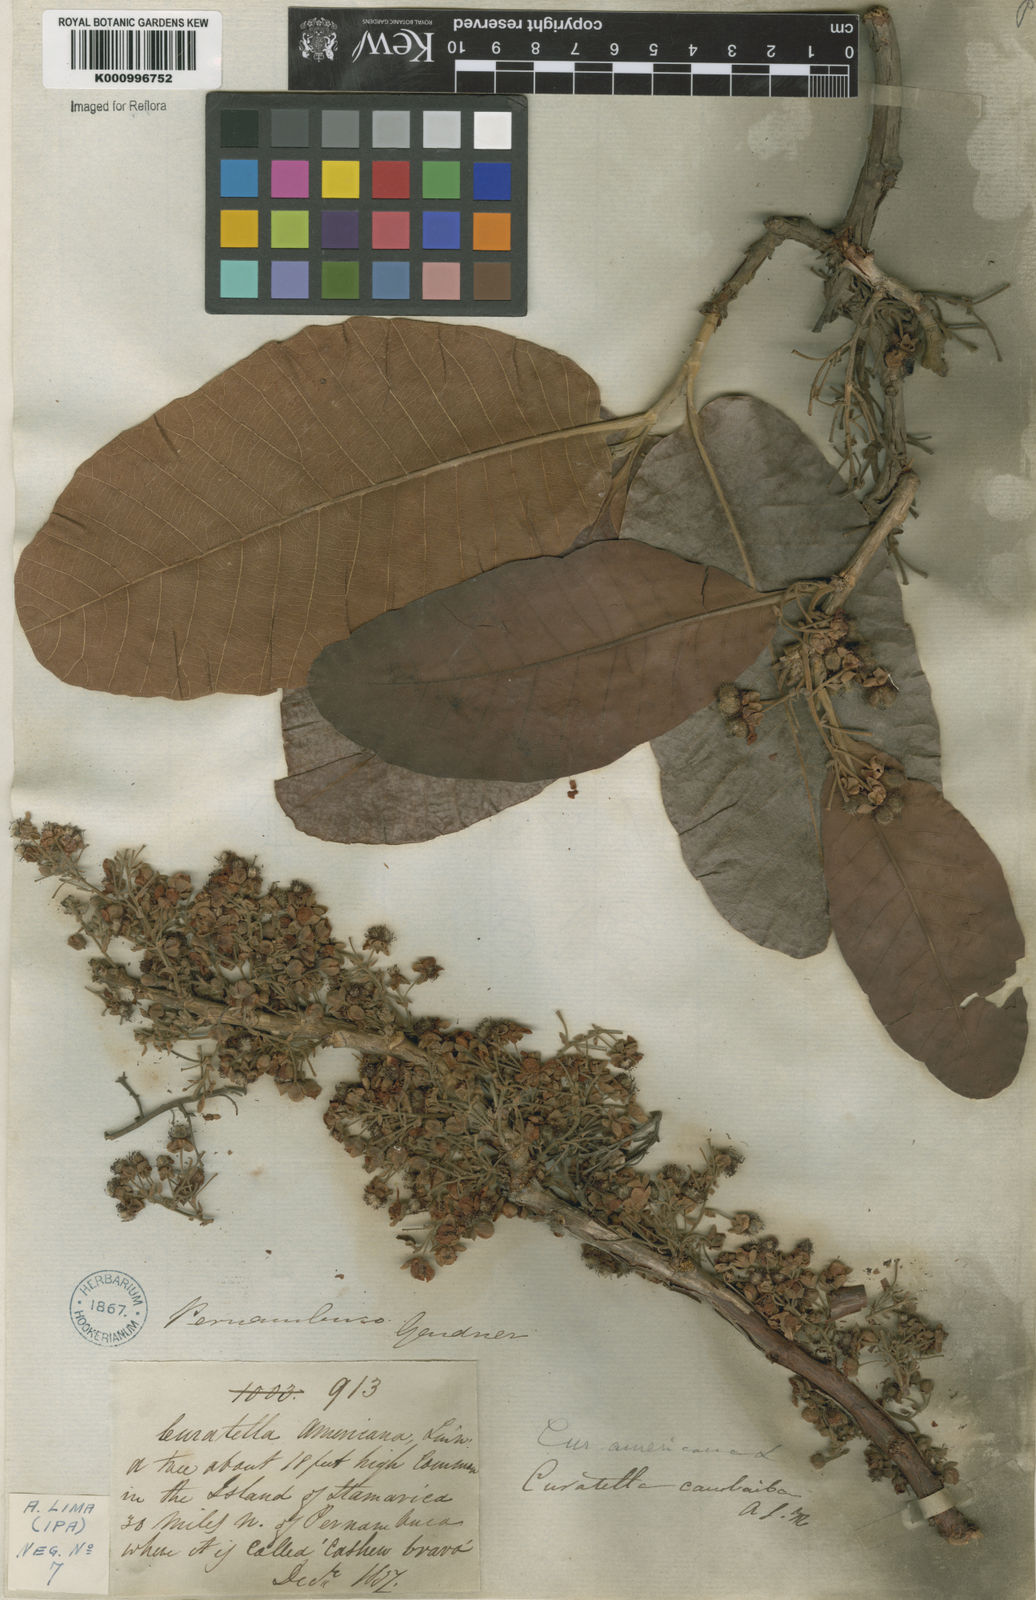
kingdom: Plantae
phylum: Tracheophyta
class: Magnoliopsida
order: Dilleniales
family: Dilleniaceae
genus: Curatella
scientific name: Curatella americana
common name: Sandpaper tree
